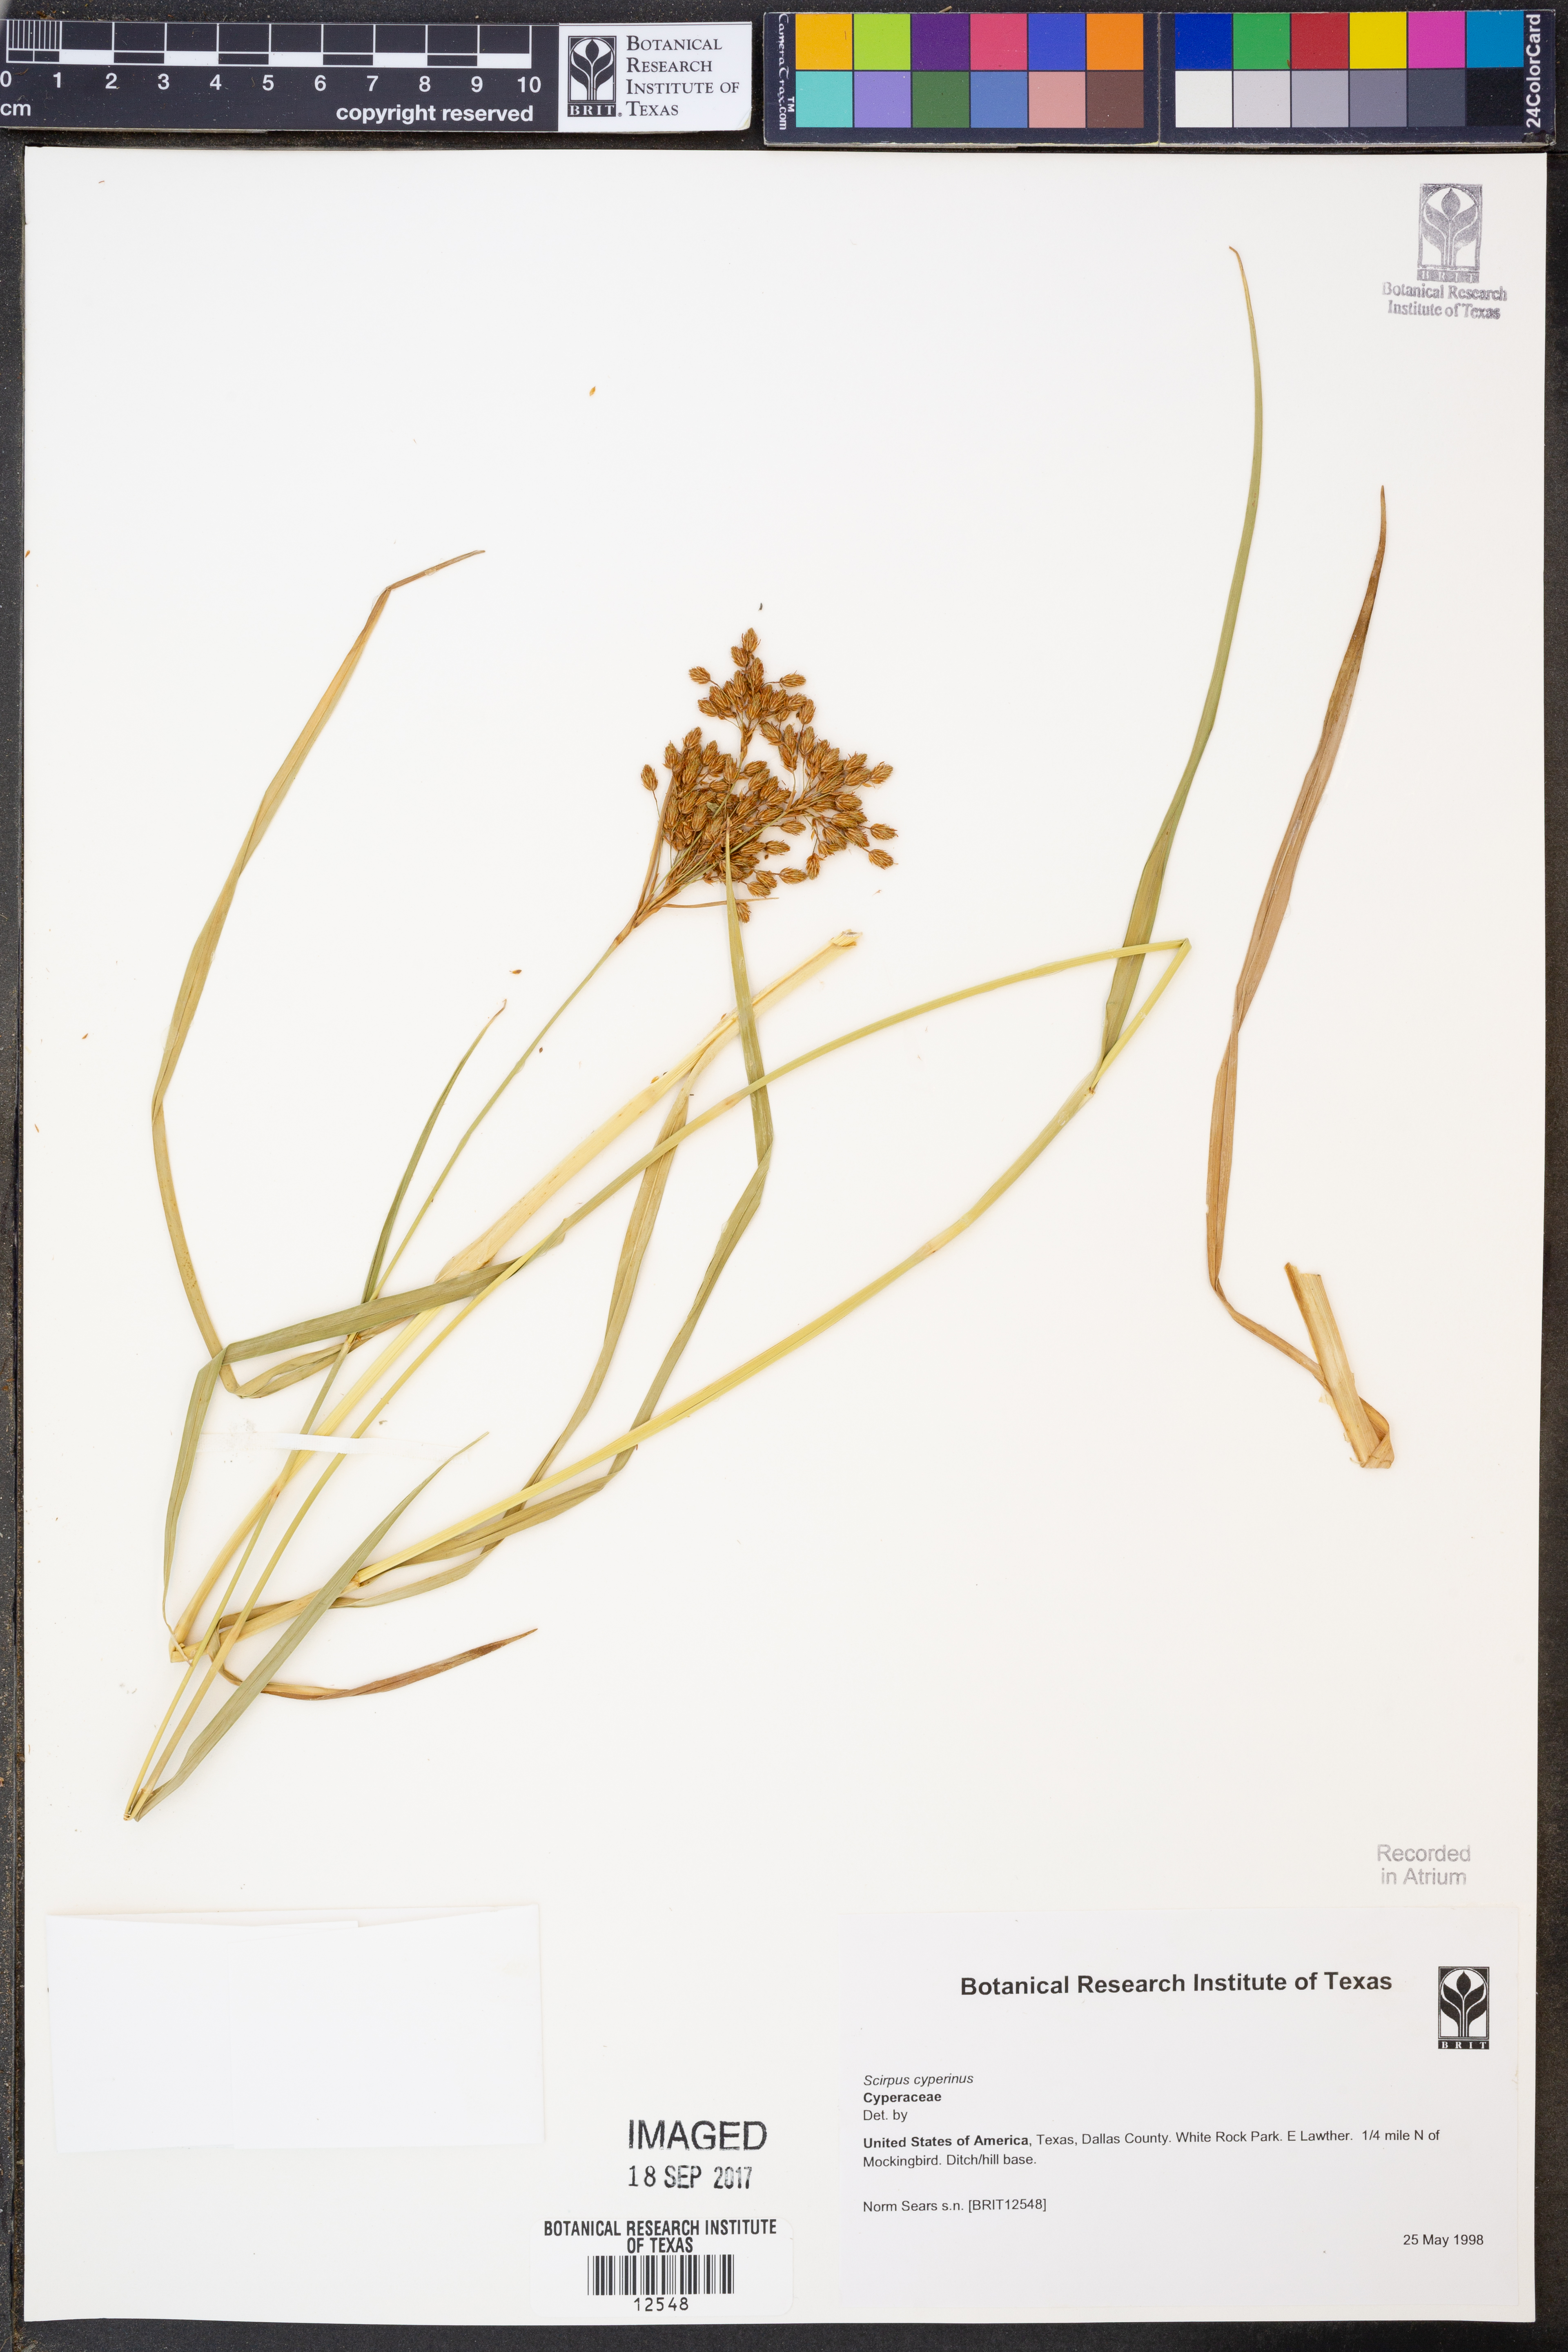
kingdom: Plantae
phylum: Tracheophyta
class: Liliopsida
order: Poales
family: Cyperaceae
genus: Scirpus
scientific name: Scirpus cyperinus
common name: Black-sheathed bulrush
